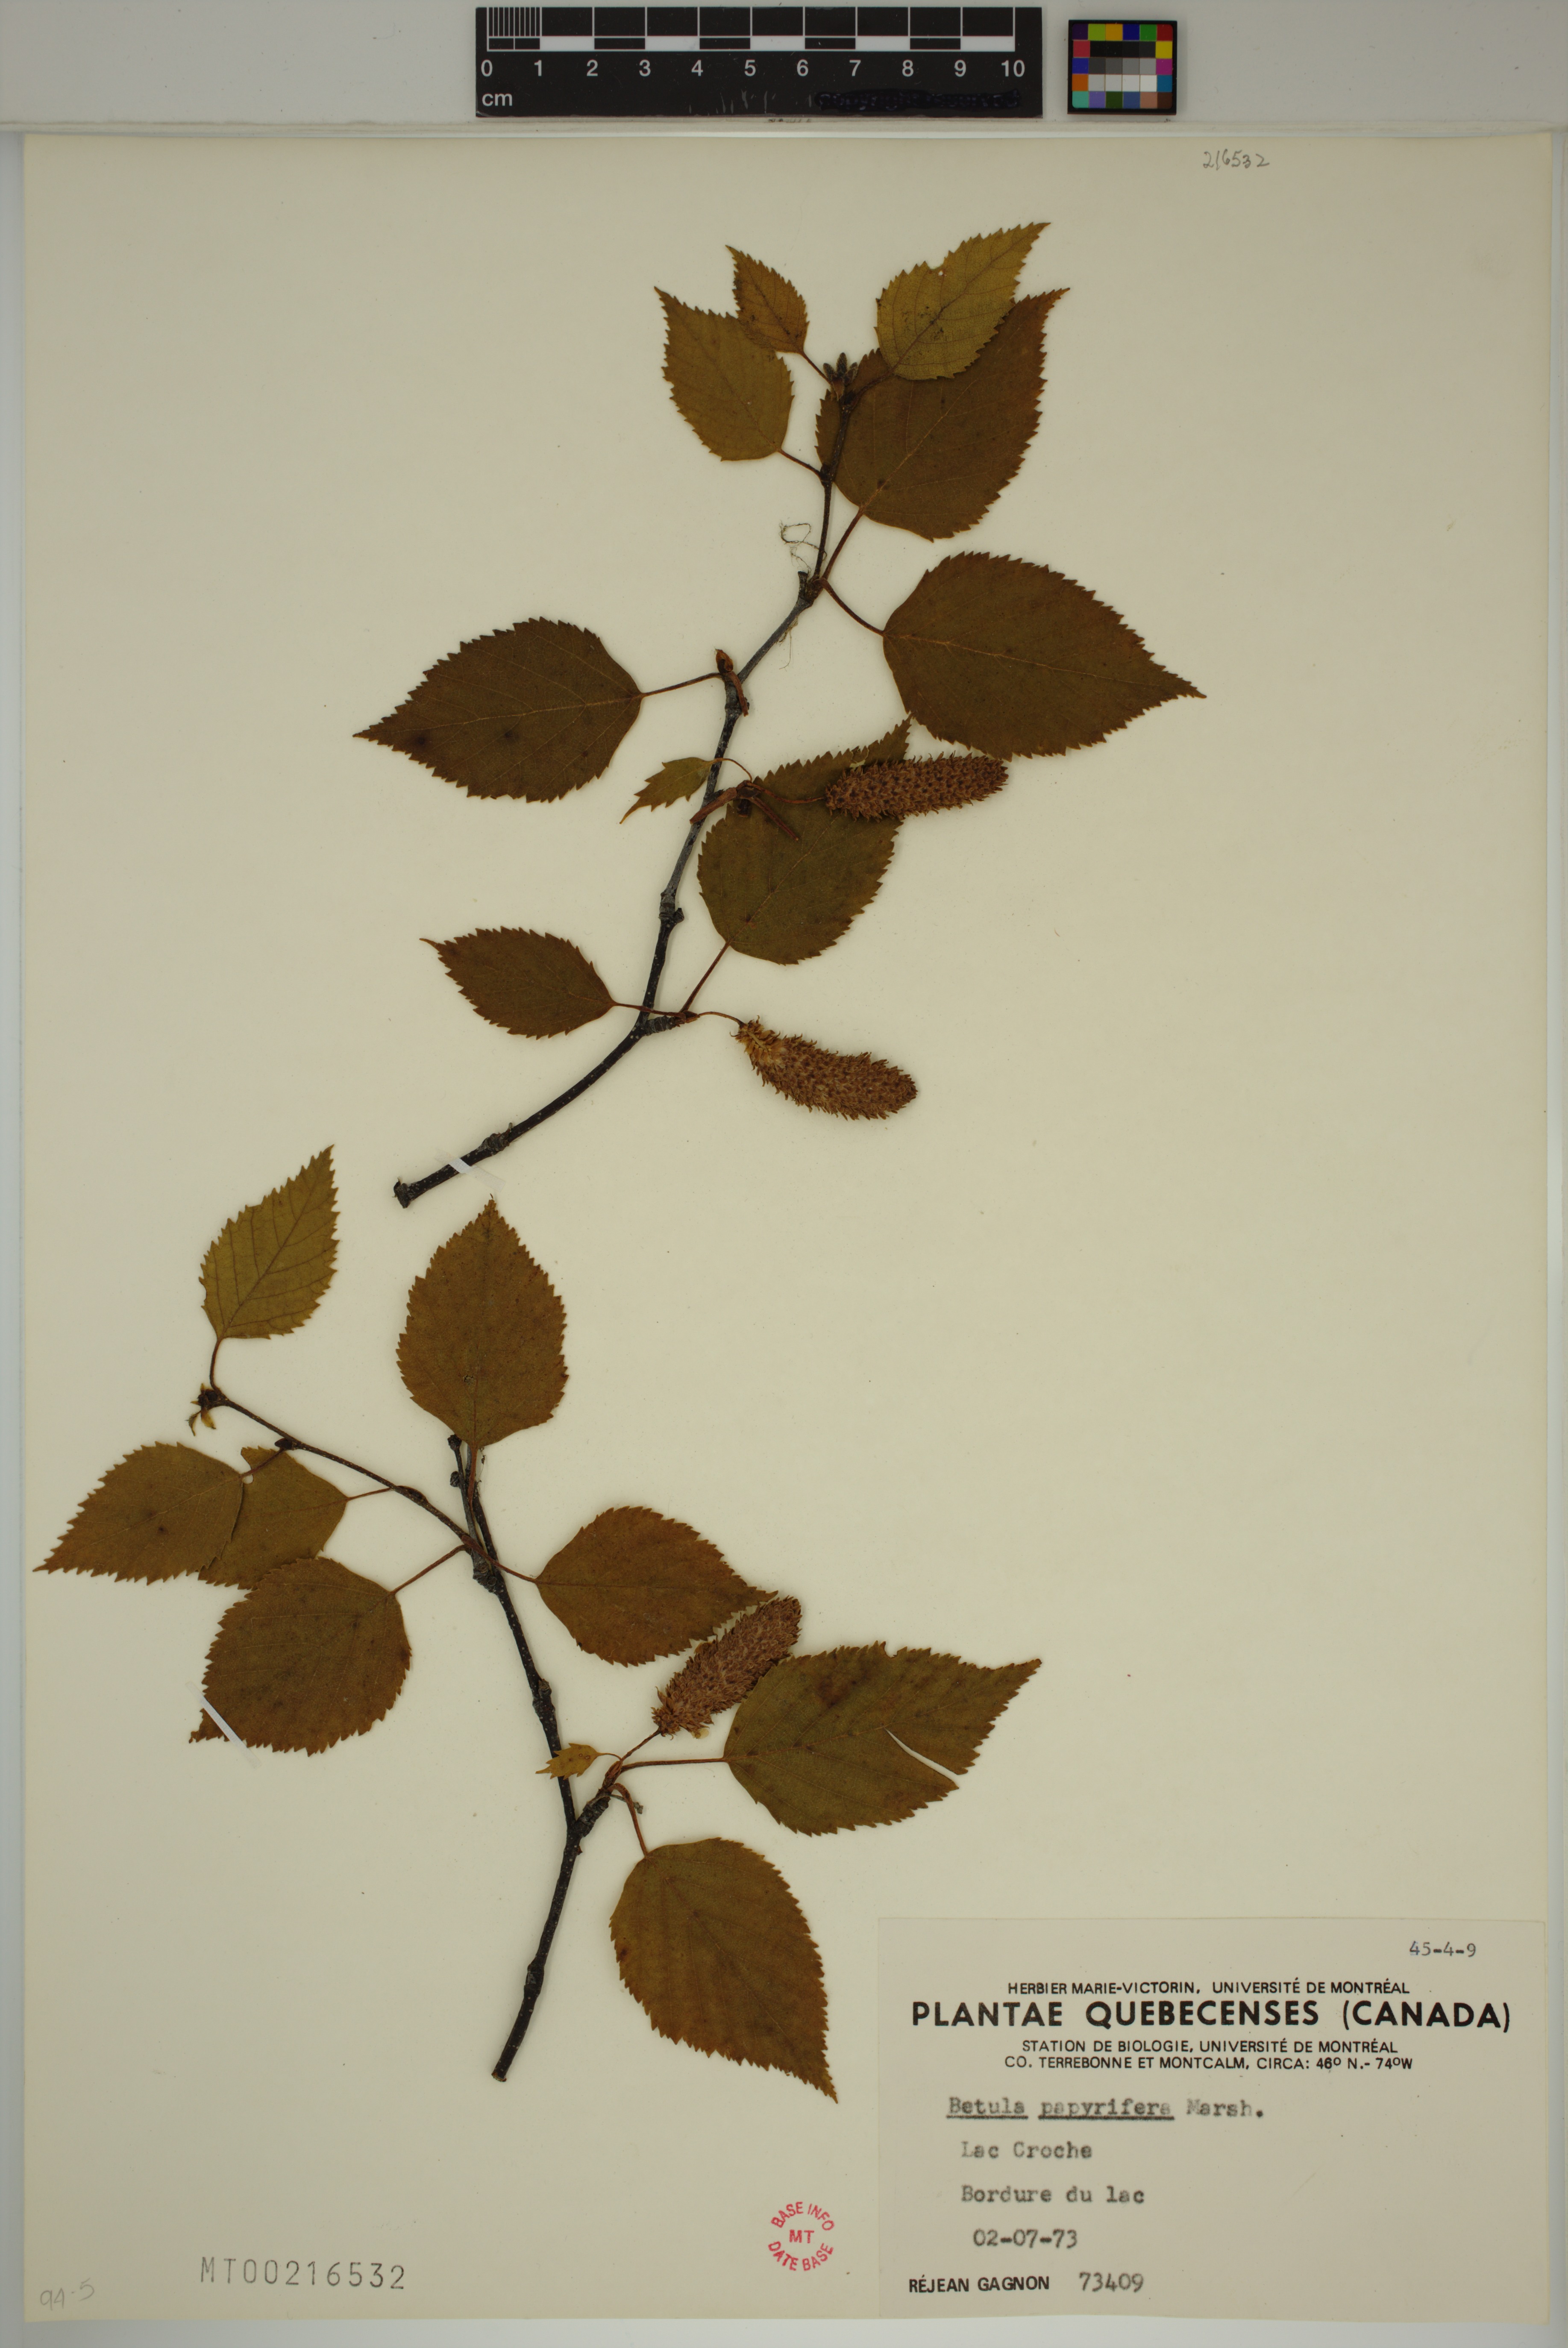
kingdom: Plantae
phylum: Tracheophyta
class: Magnoliopsida
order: Fagales
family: Betulaceae
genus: Betula
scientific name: Betula papyrifera
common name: Paper birch
